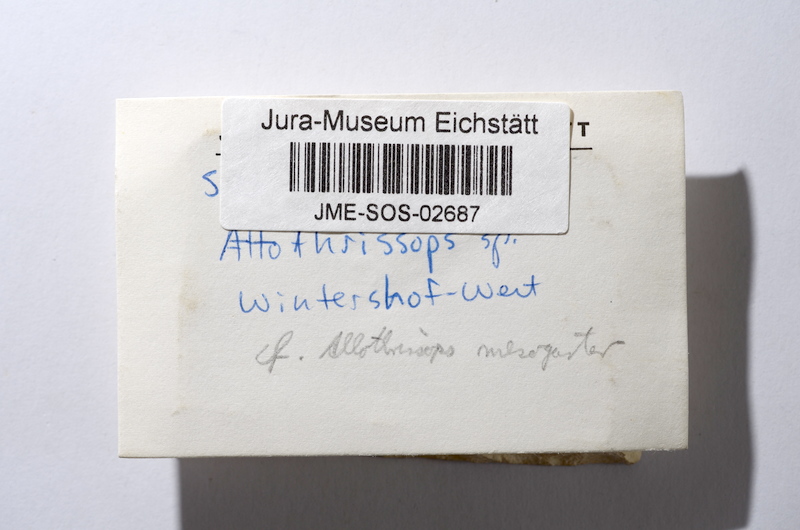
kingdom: Animalia
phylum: Chordata
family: Allothrissopidae
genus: Allothrissops
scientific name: Allothrissops mesogaster
